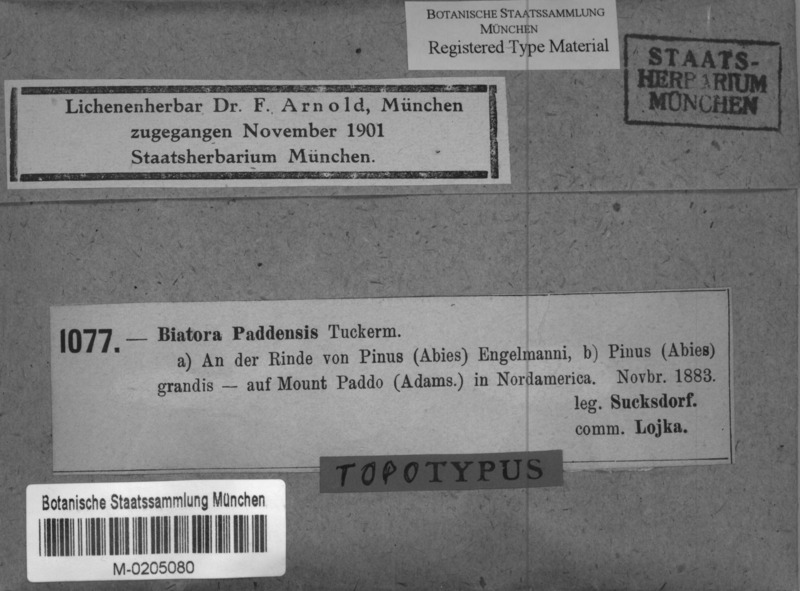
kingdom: Fungi
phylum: Ascomycota
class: Lecanoromycetes
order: Lecanorales
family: Lecanoraceae
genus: Lecanora
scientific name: Lecanora paddensis
